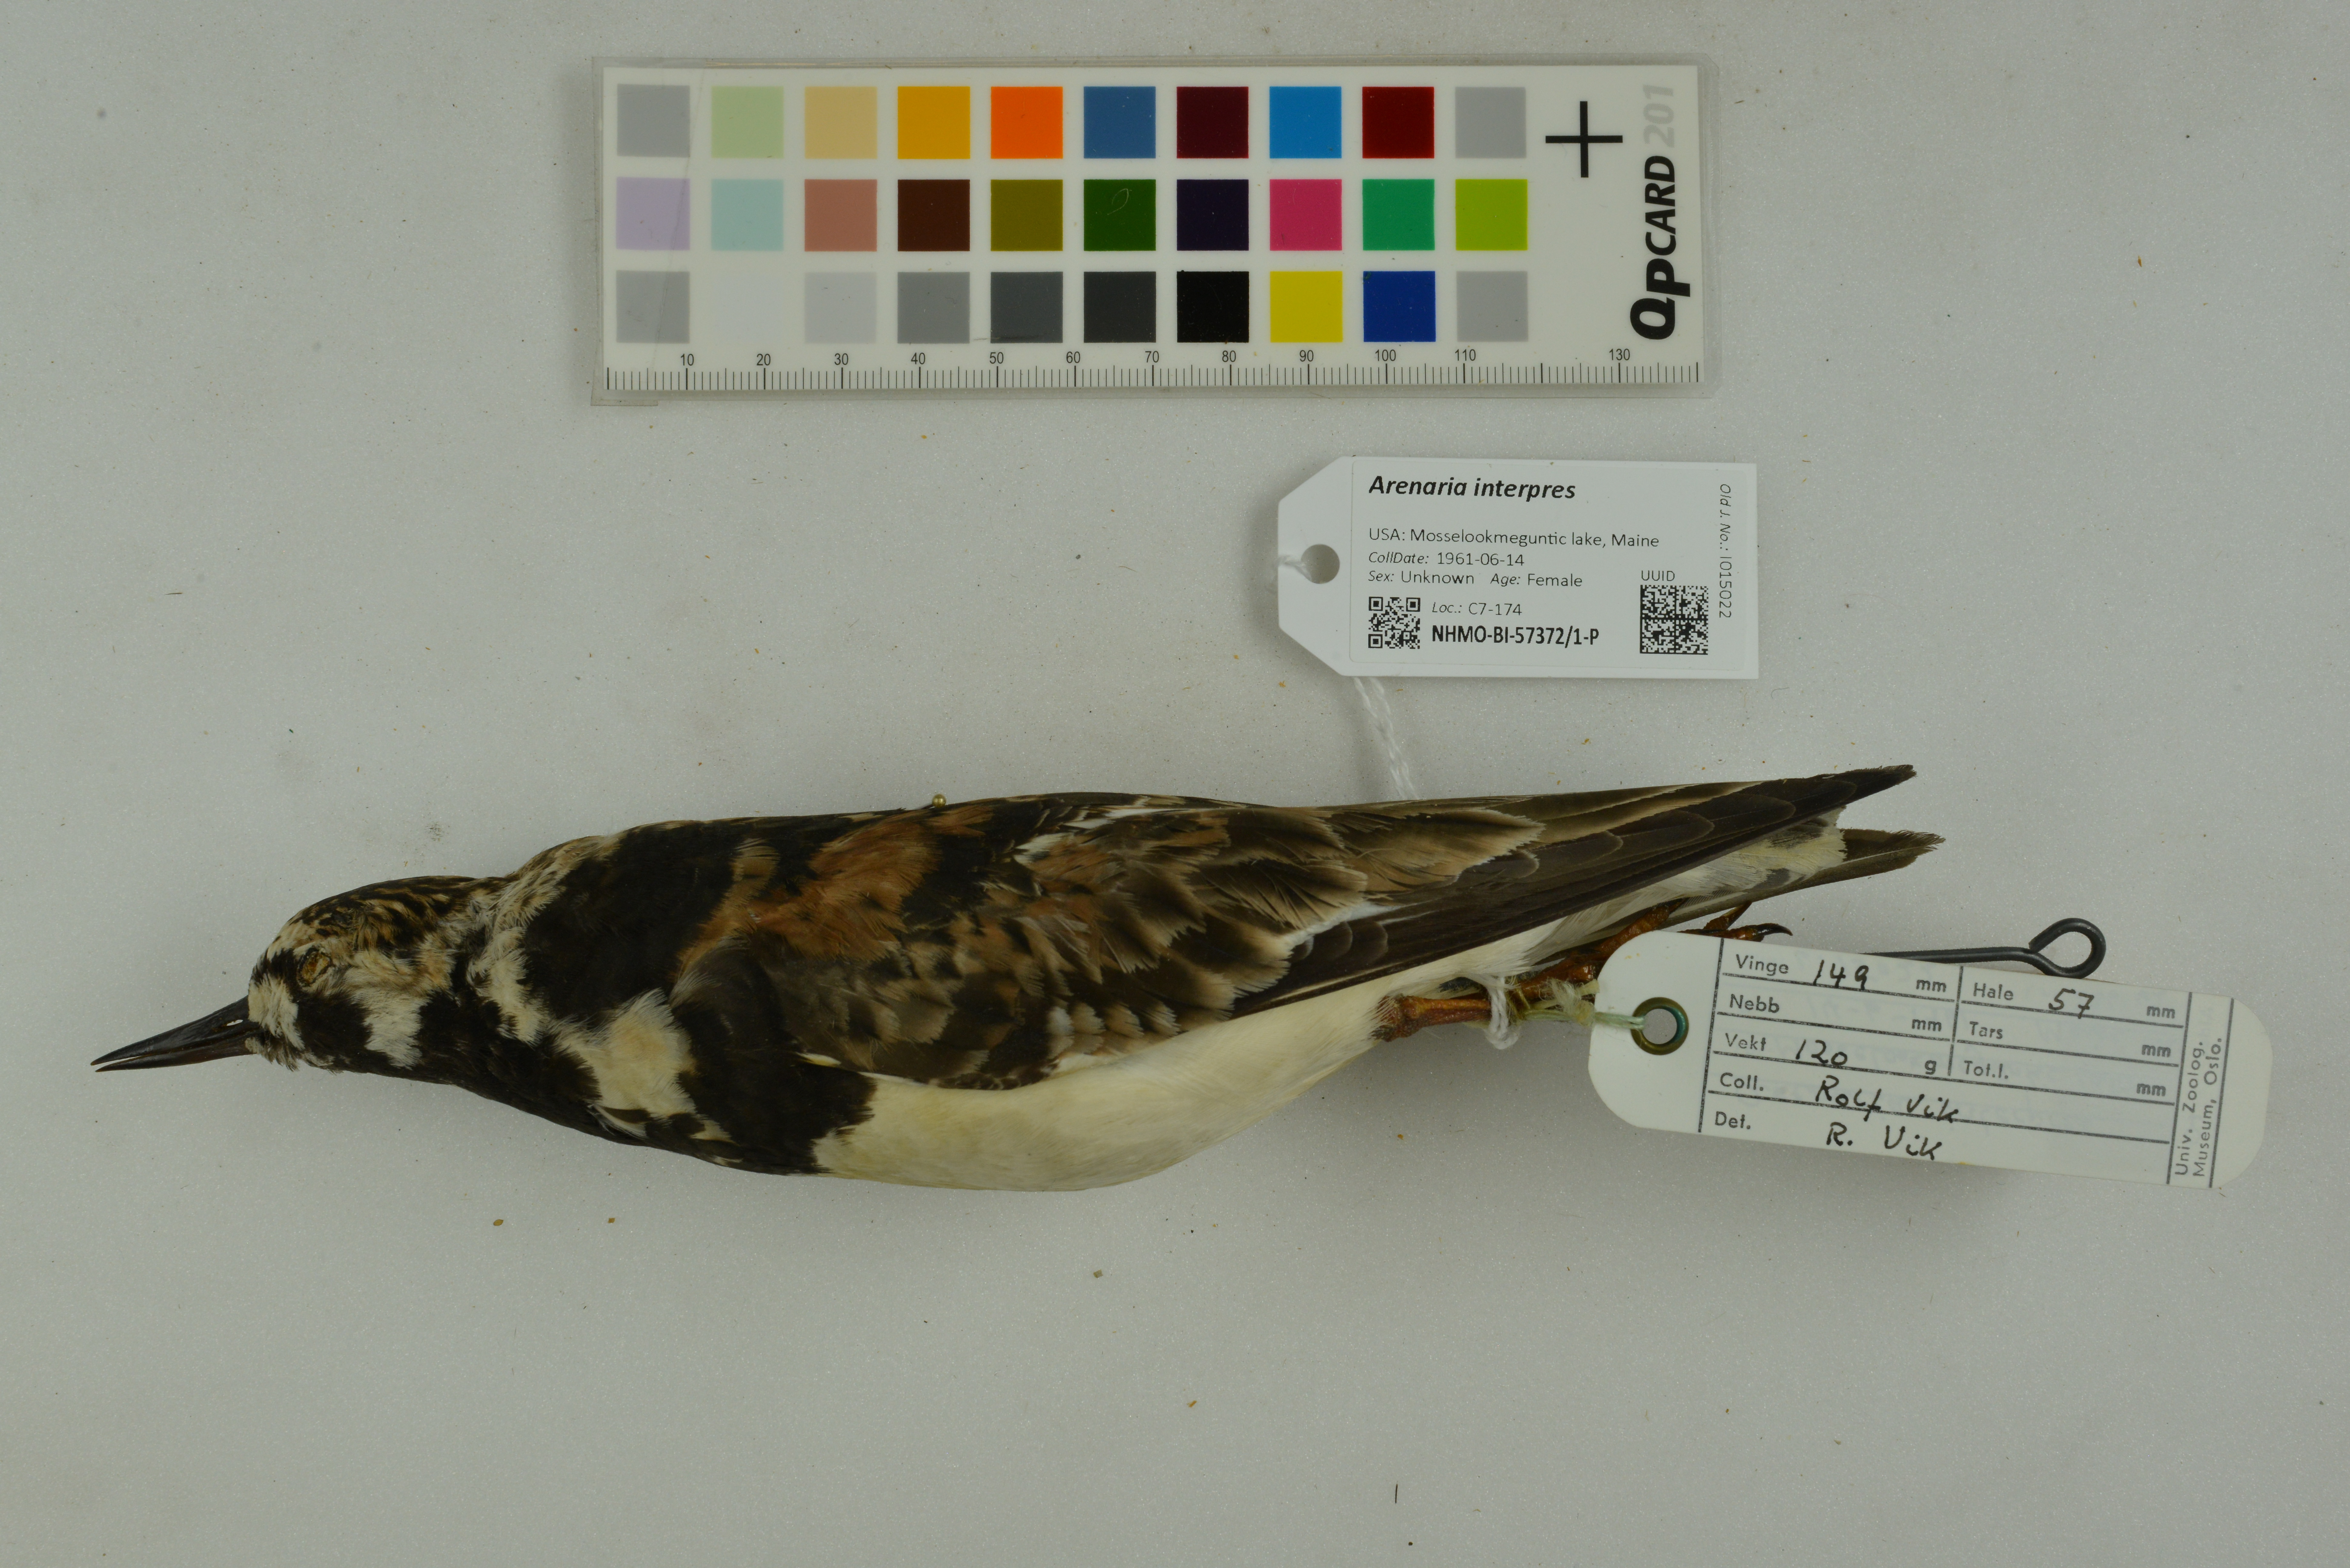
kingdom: Animalia
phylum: Chordata
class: Aves
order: Charadriiformes
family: Scolopacidae
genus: Arenaria
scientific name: Arenaria interpres
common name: Ruddy turnstone
